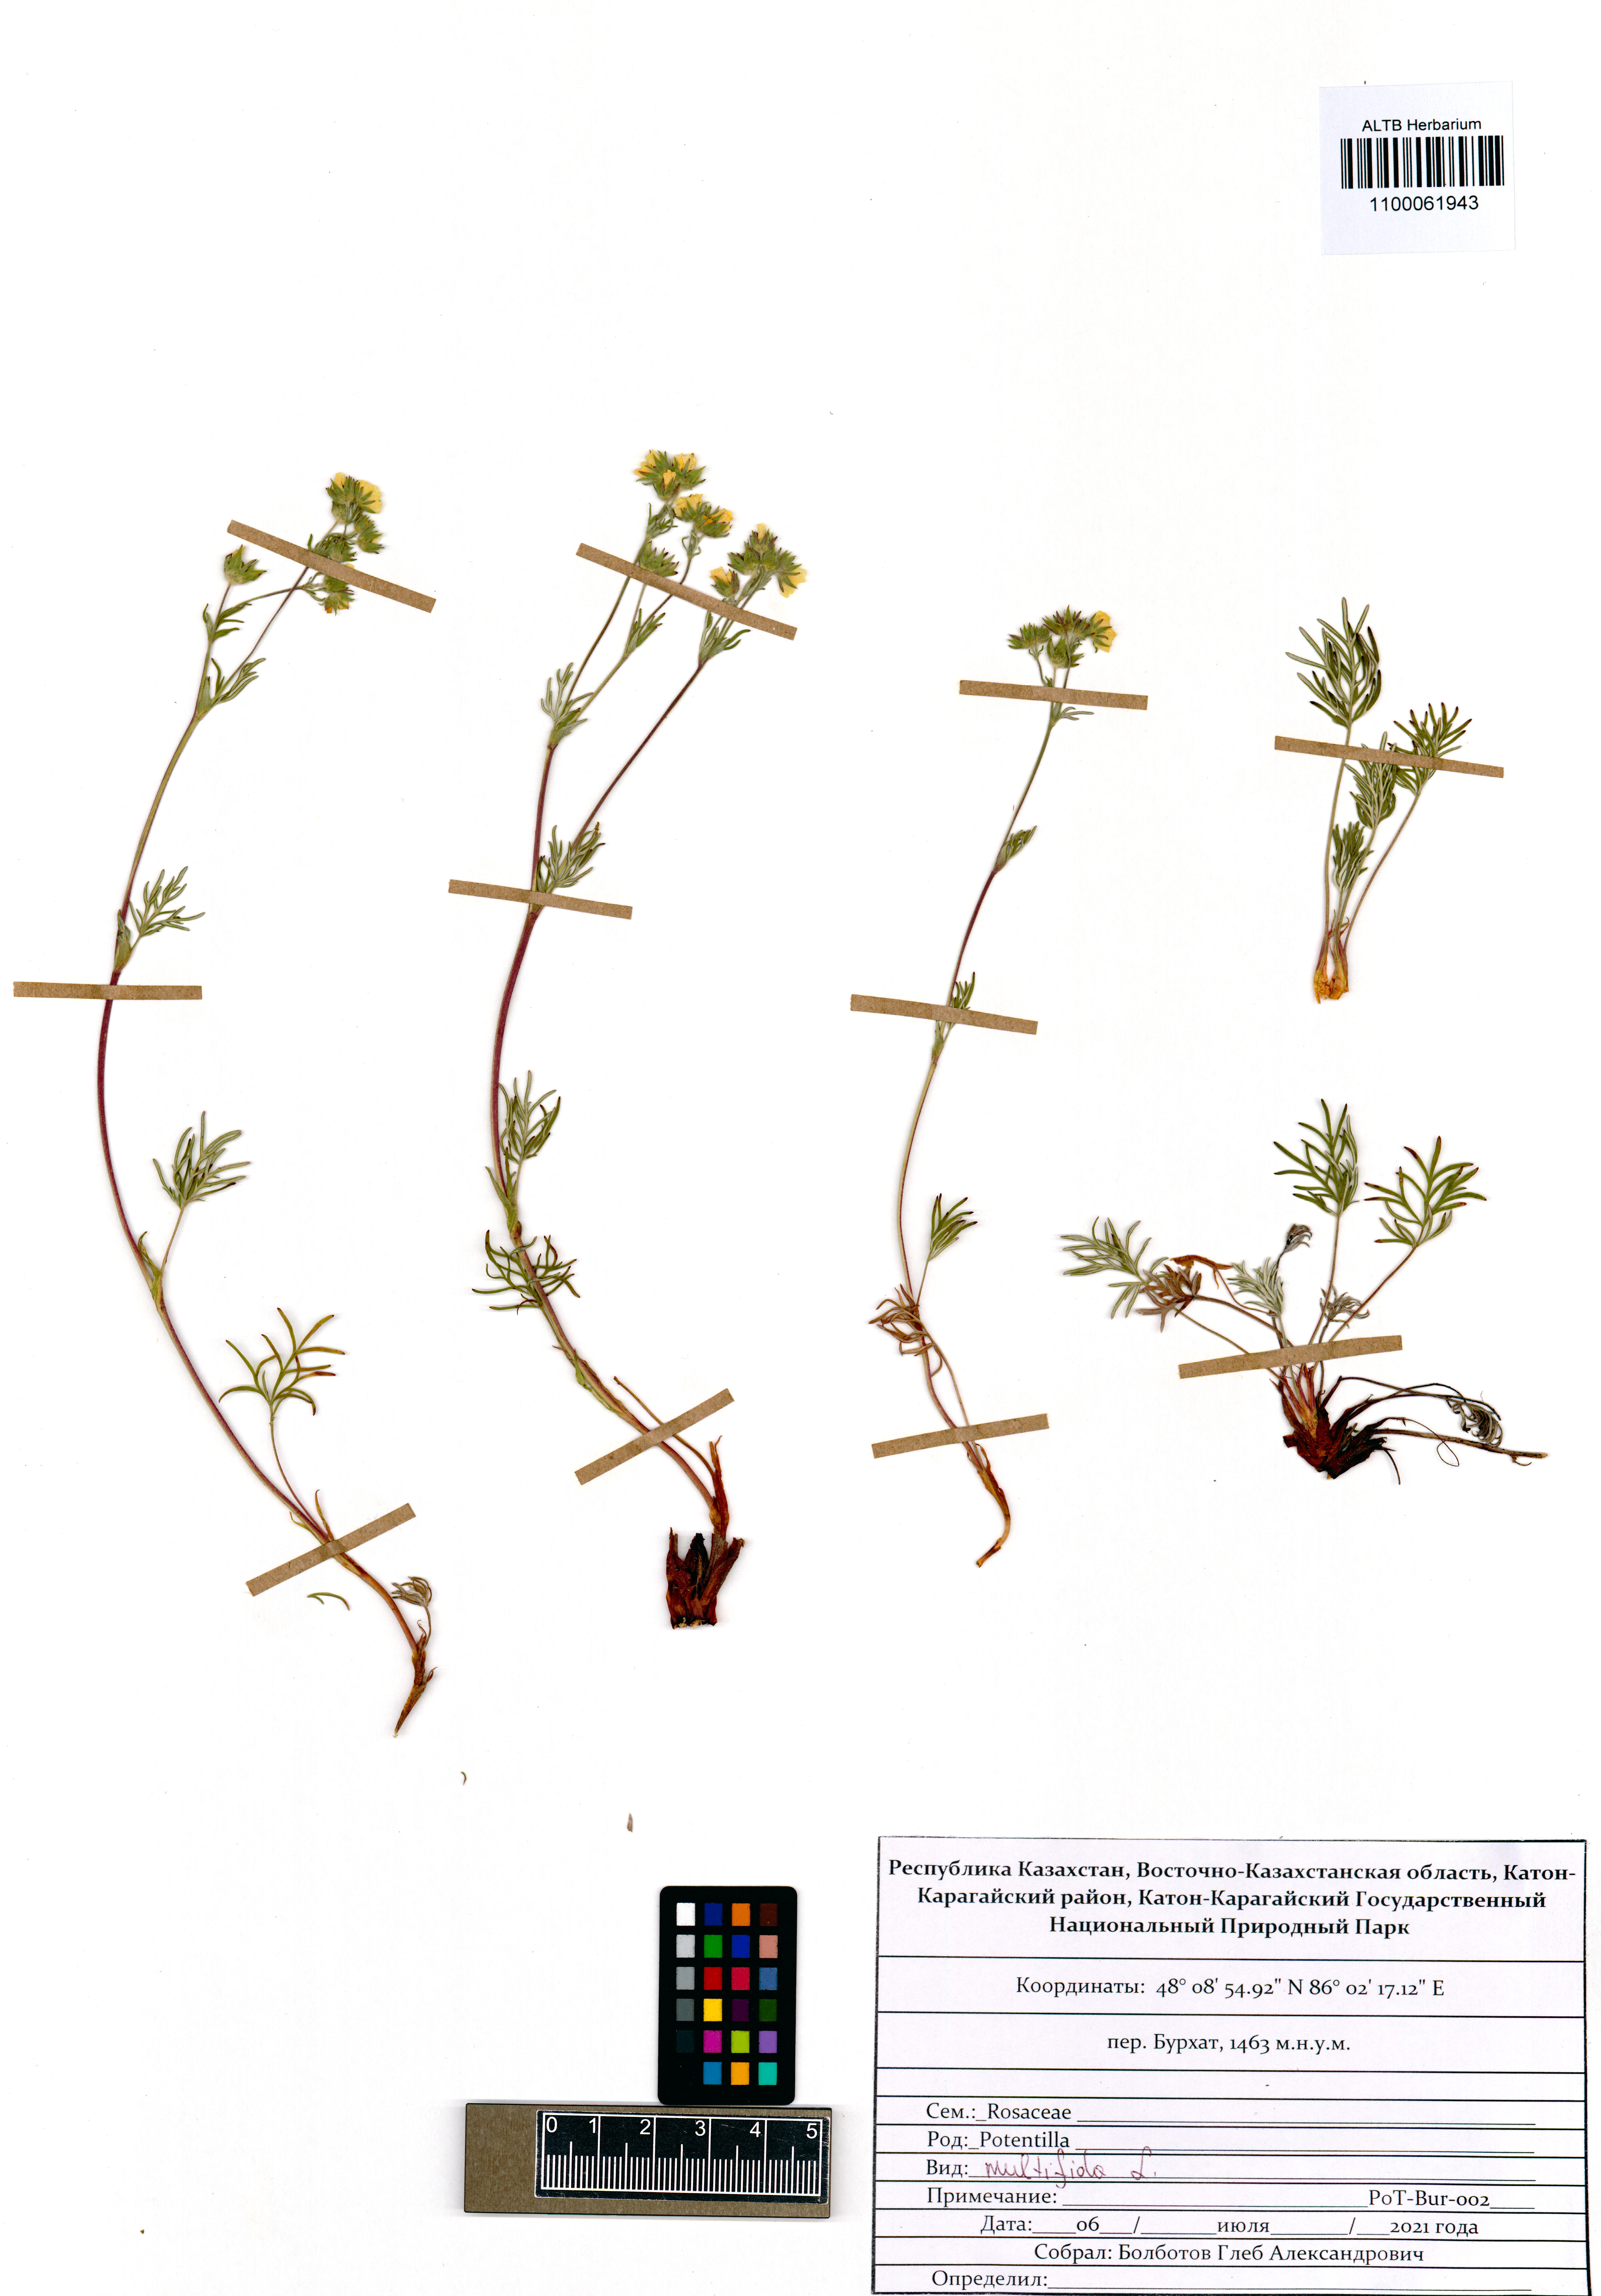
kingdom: Plantae
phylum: Tracheophyta
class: Magnoliopsida
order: Rosales
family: Rosaceae
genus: Potentilla
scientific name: Potentilla multifida
